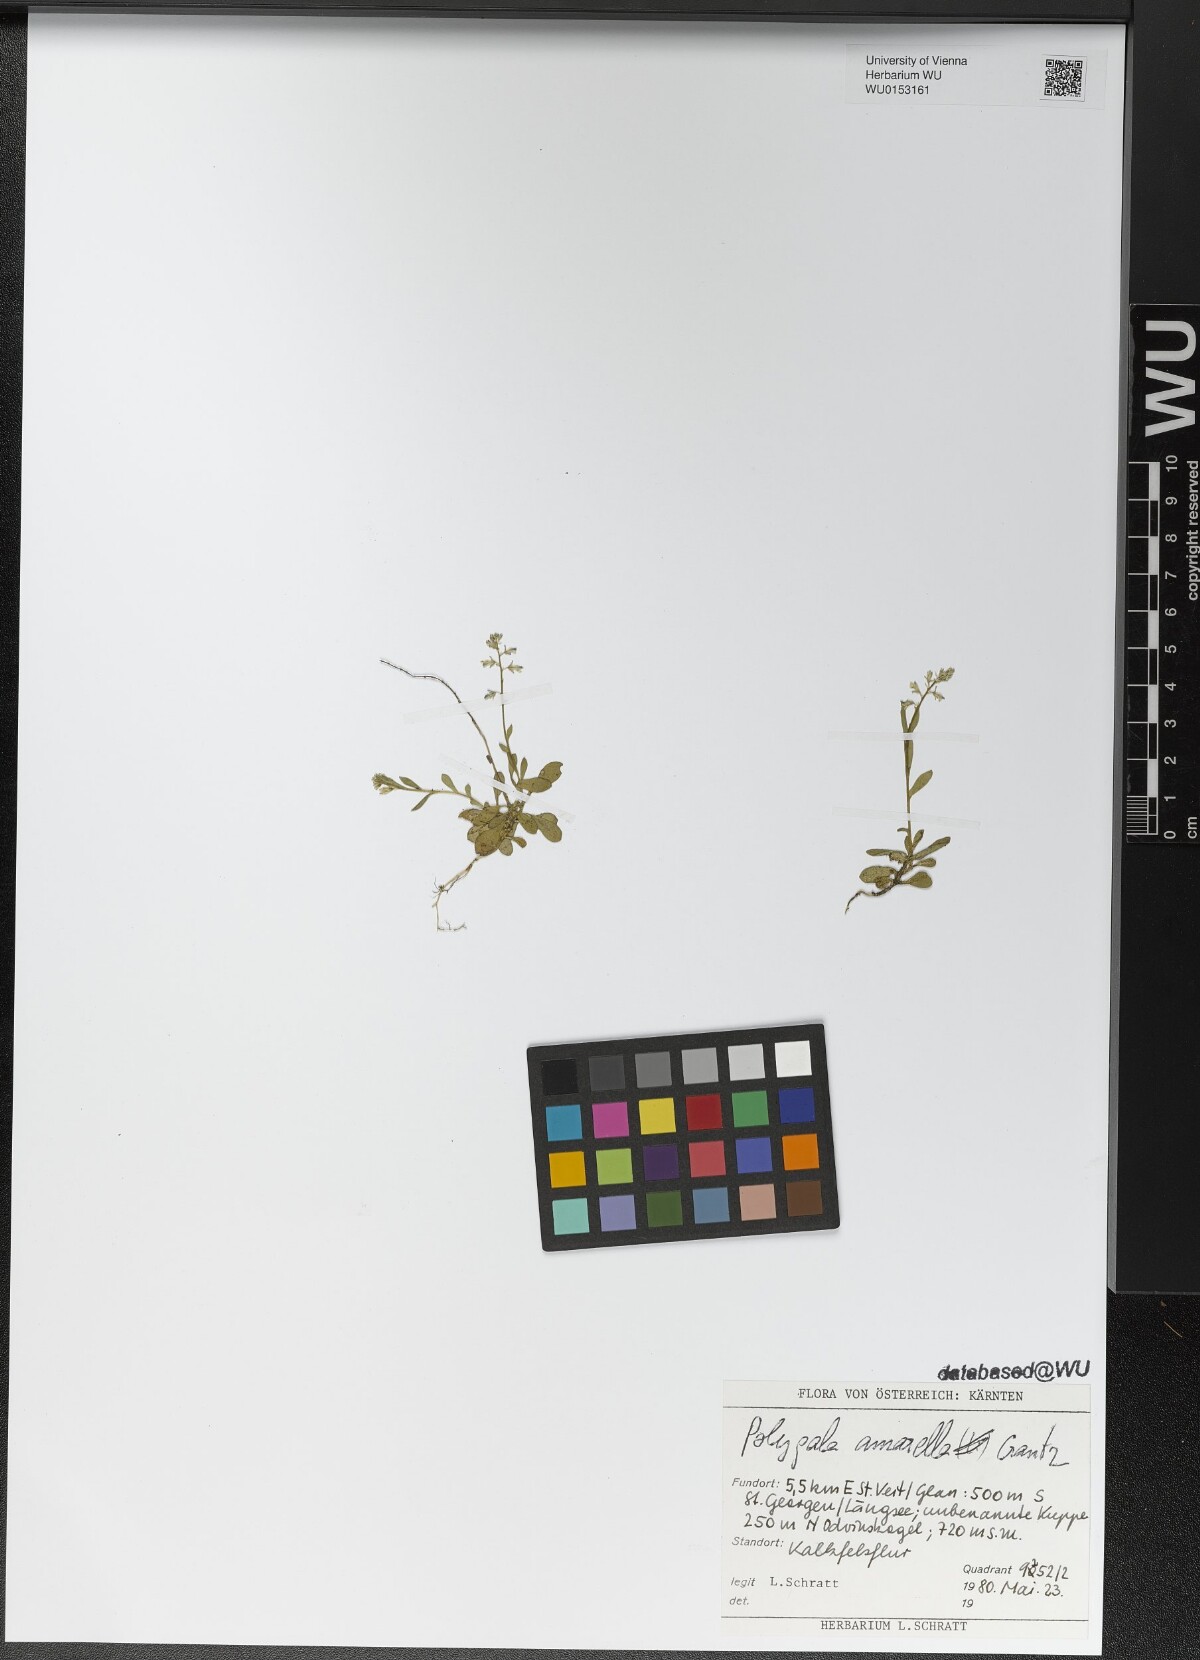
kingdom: Plantae
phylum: Tracheophyta
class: Magnoliopsida
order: Fabales
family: Polygalaceae
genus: Polygala
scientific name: Polygala amarella
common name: Dwarf milkwort
